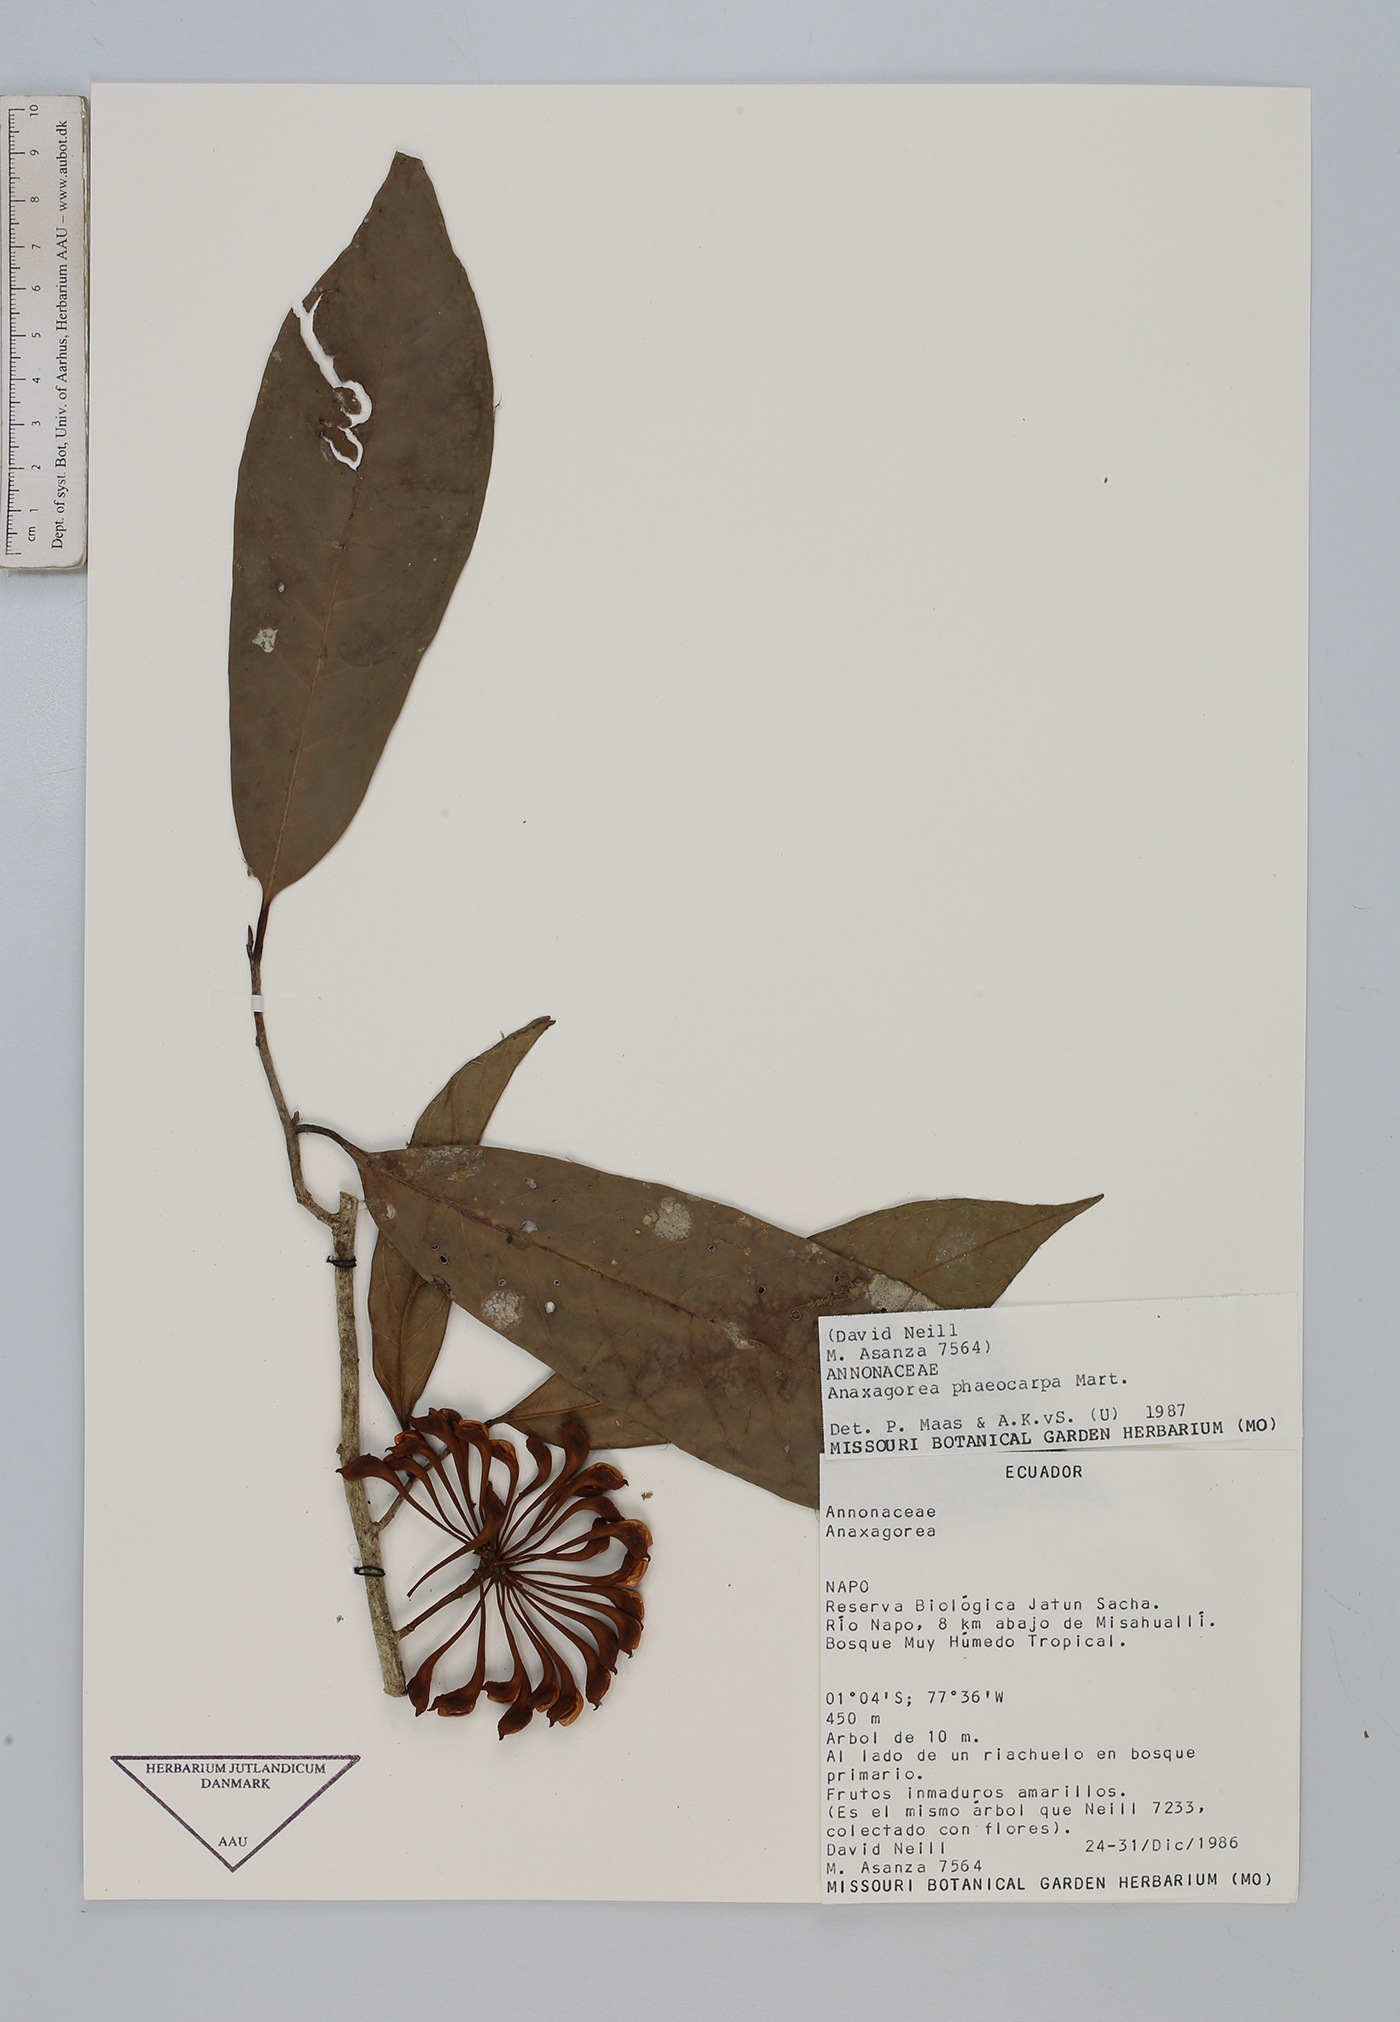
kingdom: Plantae
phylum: Tracheophyta
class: Magnoliopsida
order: Magnoliales
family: Annonaceae
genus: Anaxagorea
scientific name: Anaxagorea phaeocarpa
